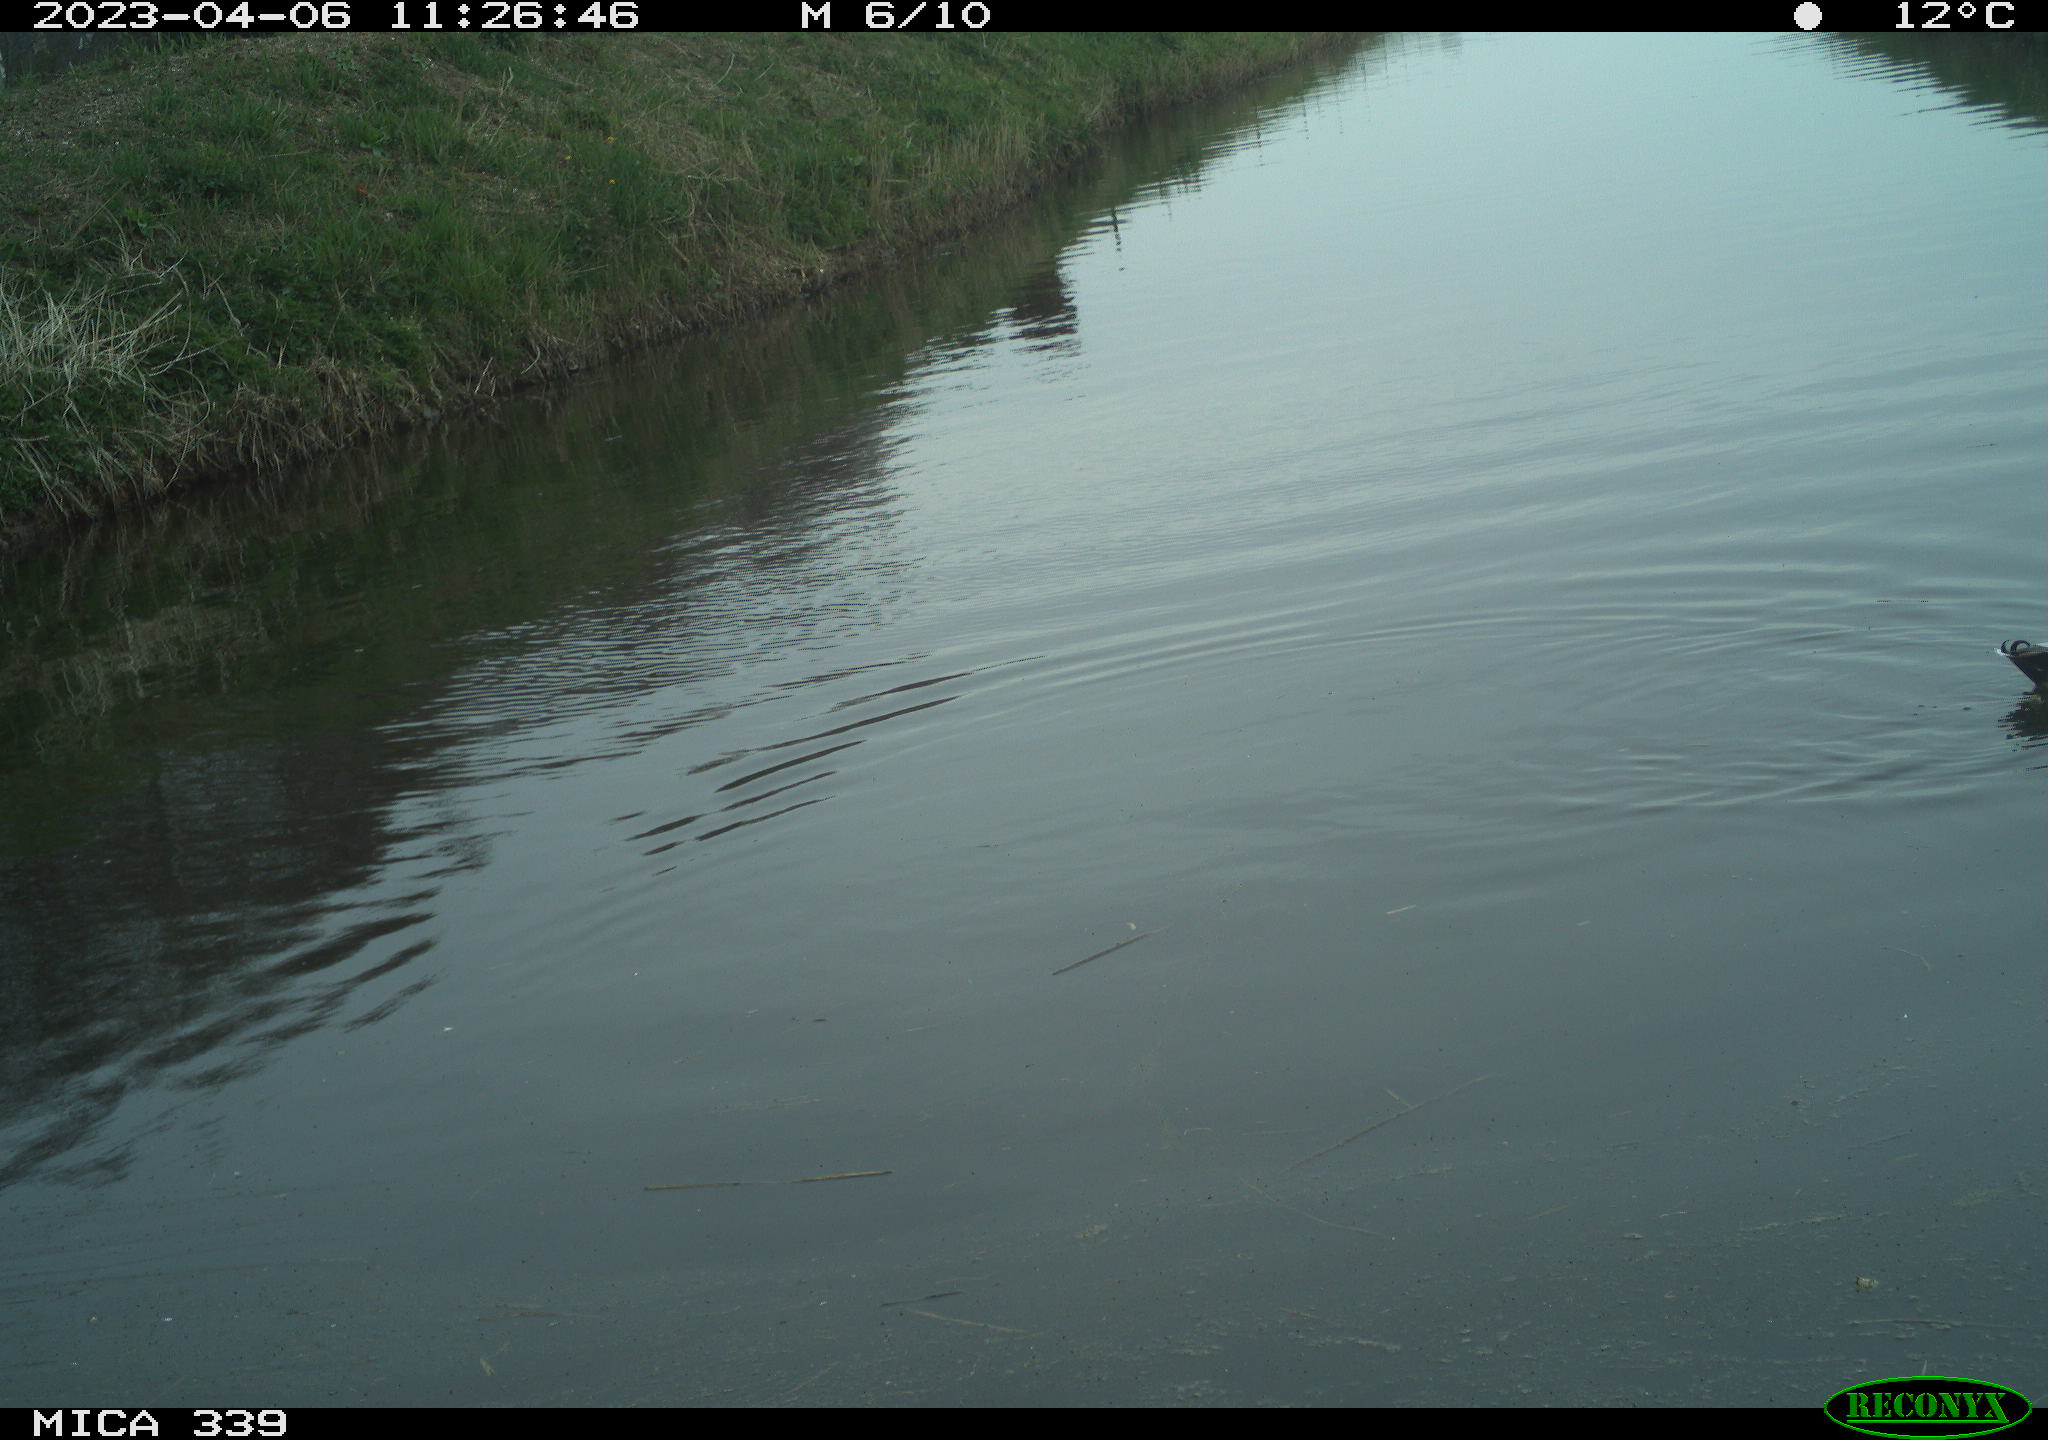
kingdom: Animalia
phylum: Chordata
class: Aves
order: Anseriformes
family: Anatidae
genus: Anas
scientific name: Anas
